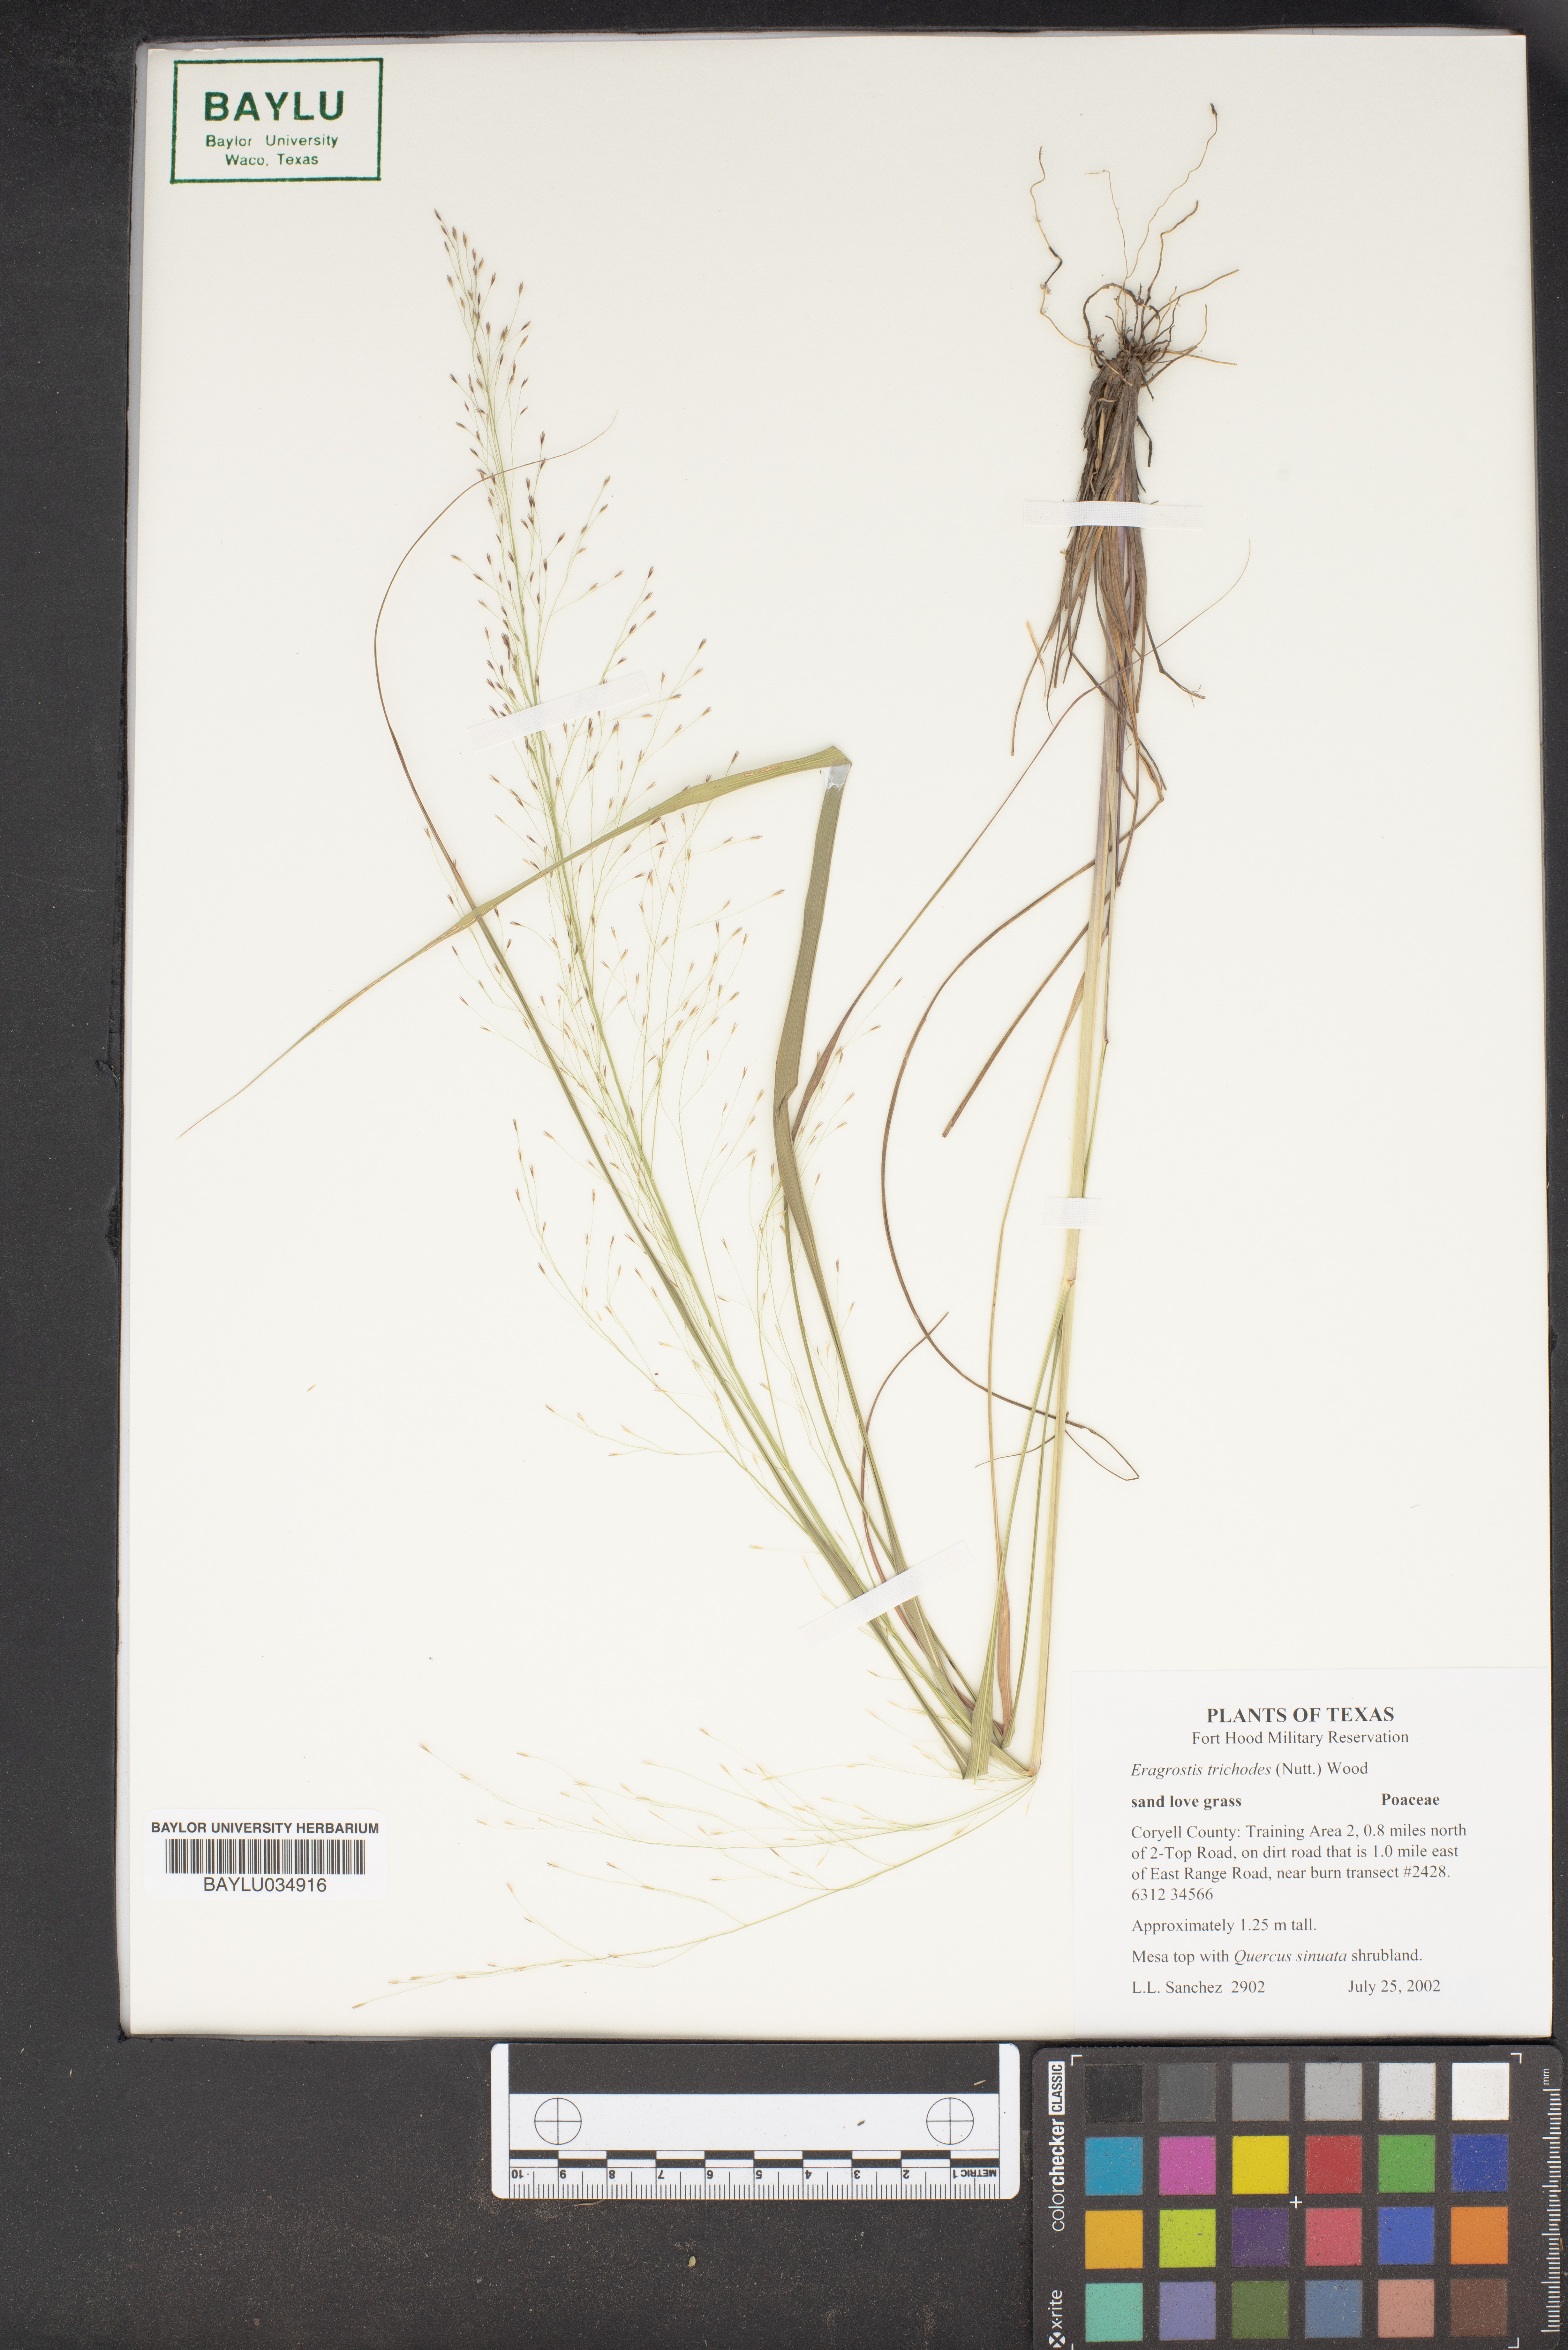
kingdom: Plantae
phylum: Tracheophyta
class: Liliopsida
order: Poales
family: Poaceae
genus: Eragrostis
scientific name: Eragrostis trichodes
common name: Sand love grass
